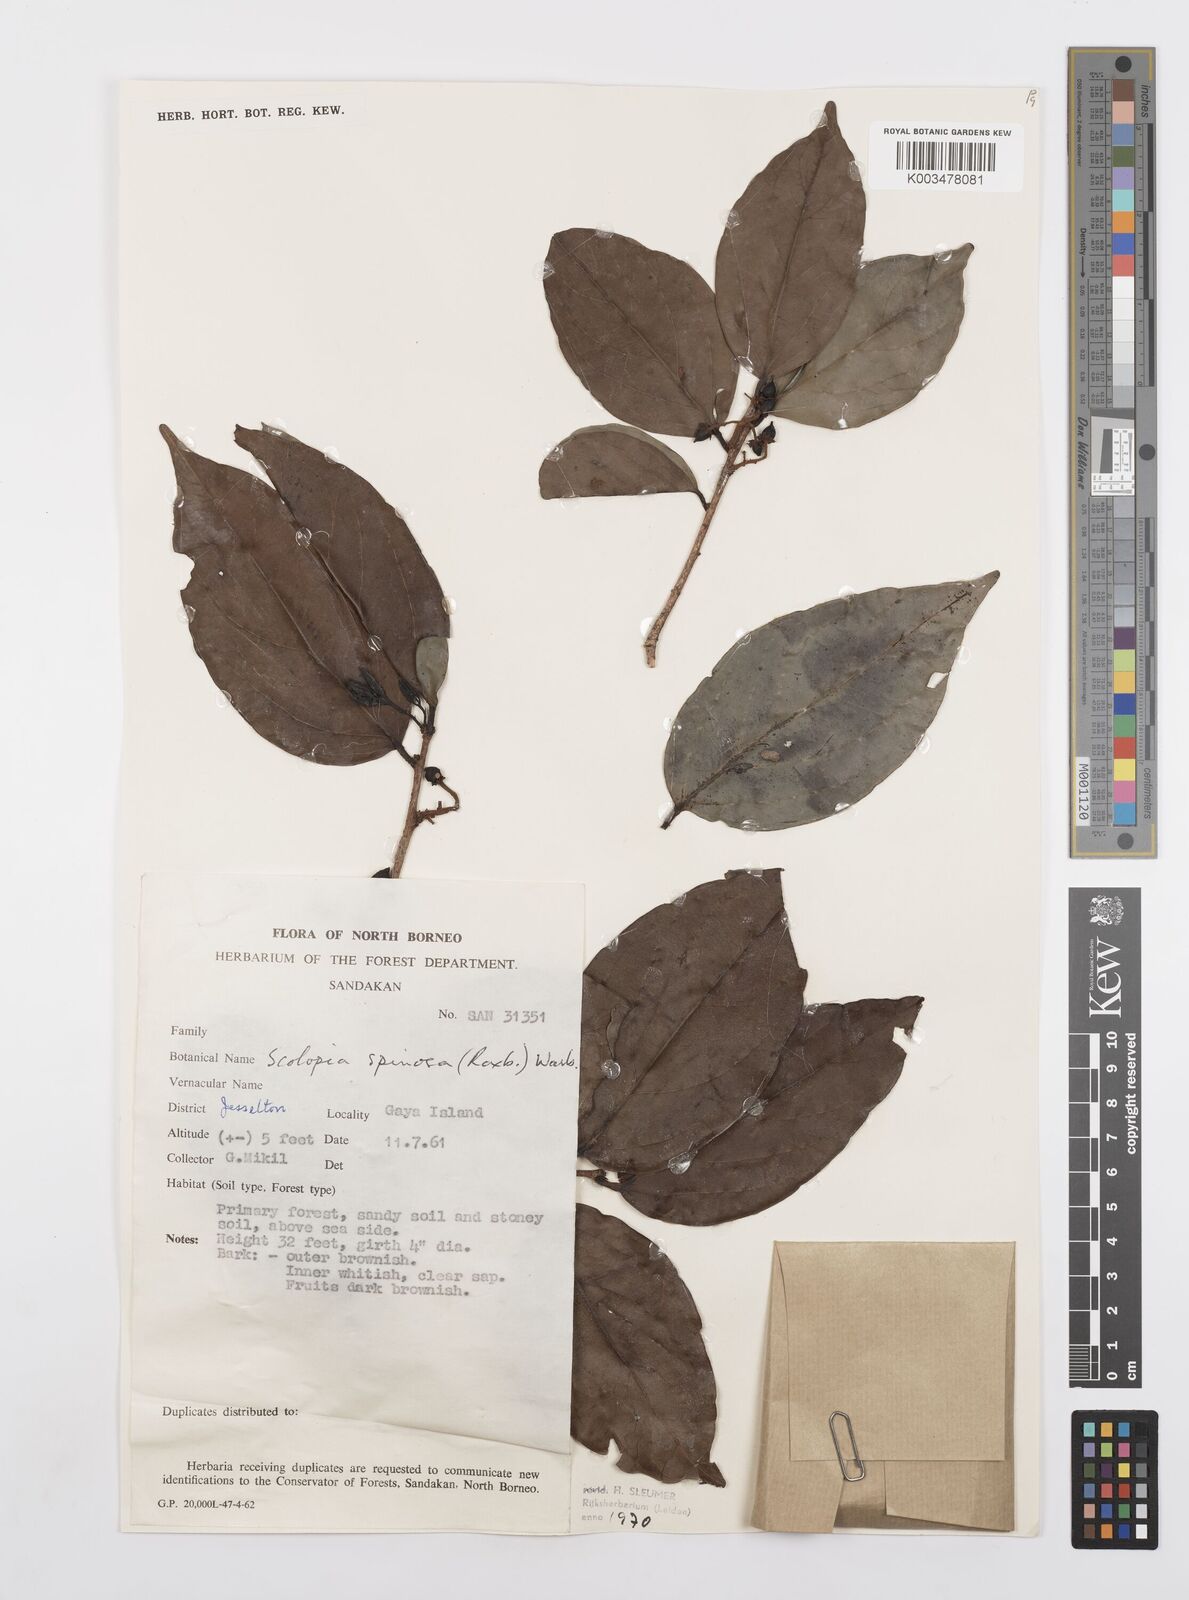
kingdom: Plantae
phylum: Tracheophyta
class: Magnoliopsida
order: Malpighiales
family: Salicaceae
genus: Scolopia
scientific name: Scolopia spinosa
